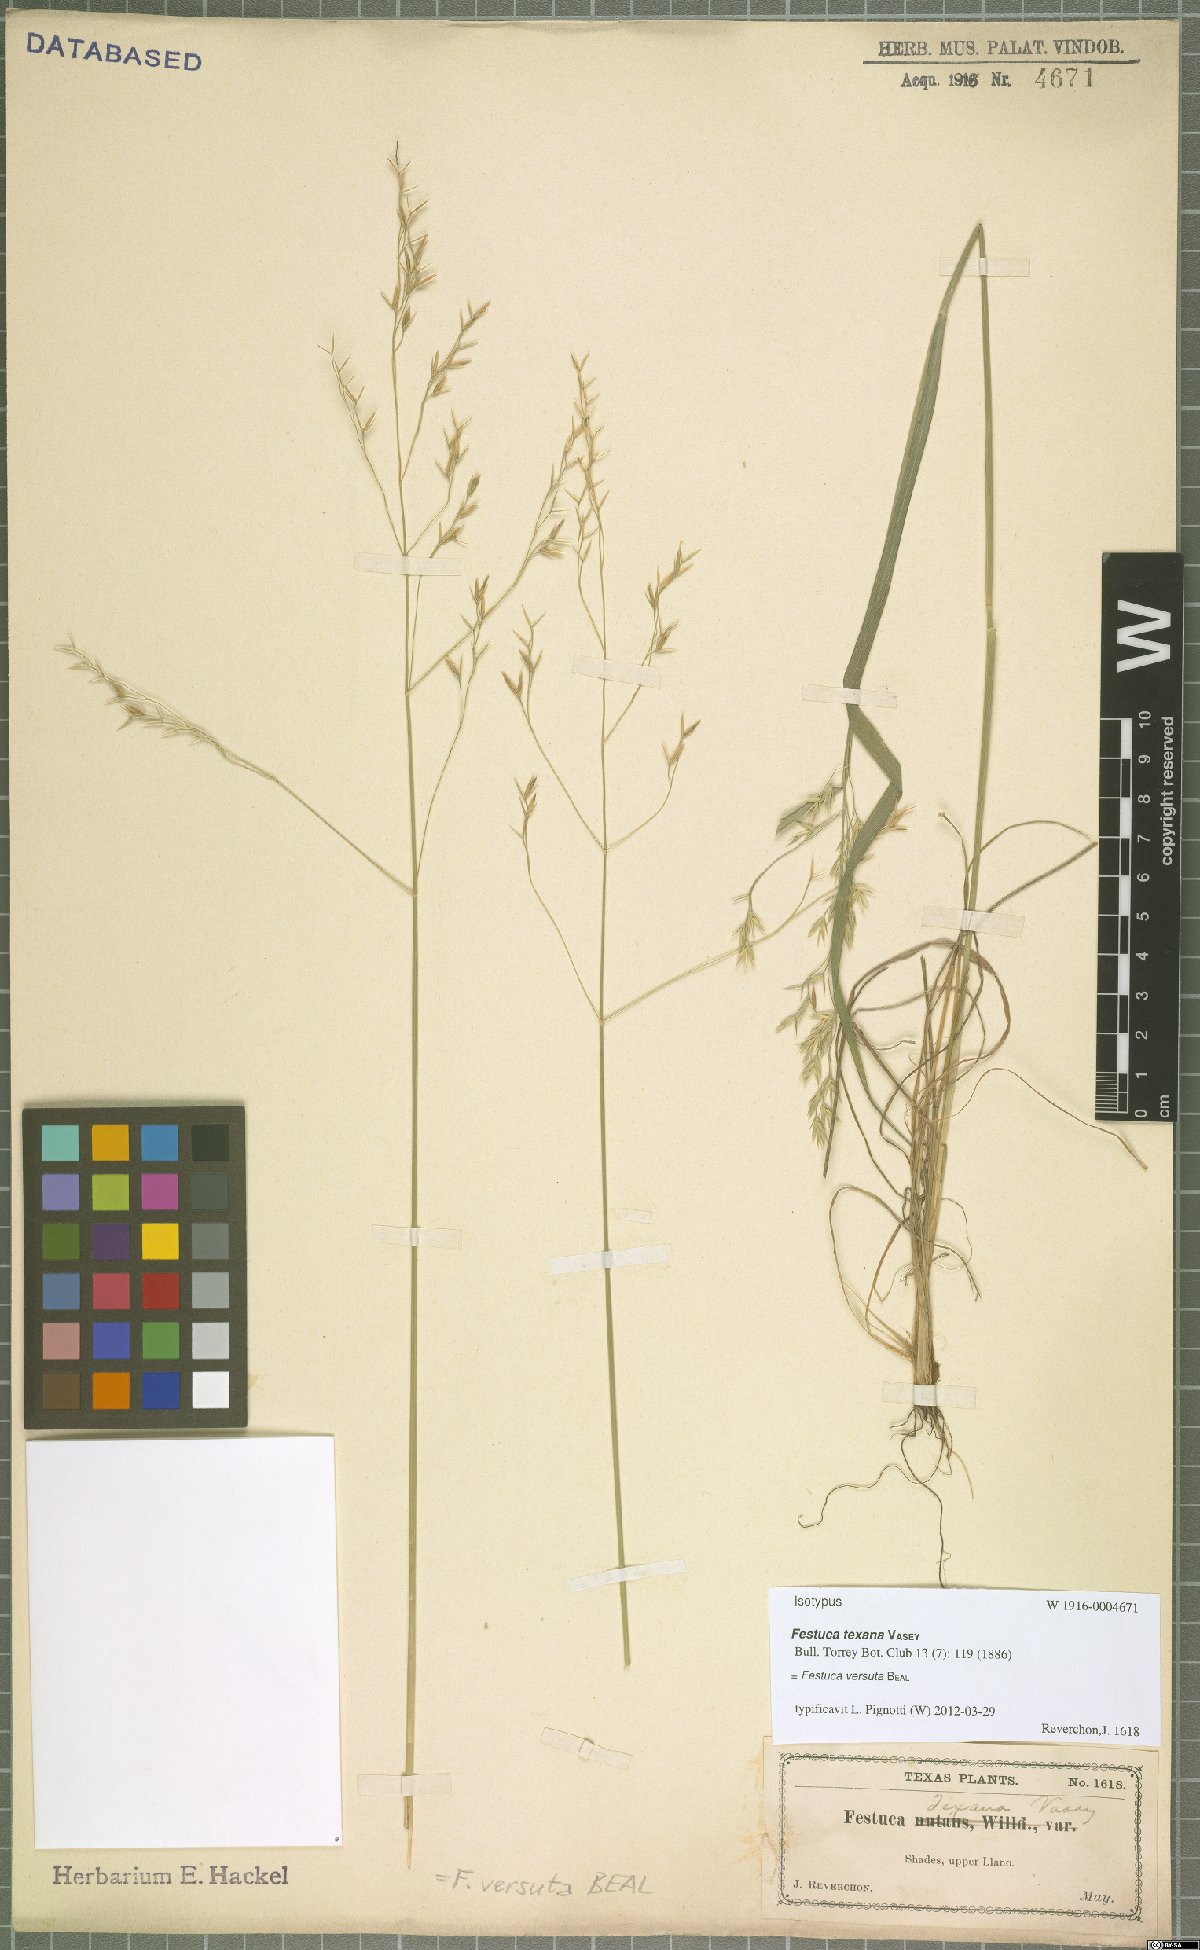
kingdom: Plantae
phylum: Tracheophyta
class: Liliopsida
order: Poales
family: Poaceae
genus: Festuca
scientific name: Festuca versuta
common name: Texas fescue
